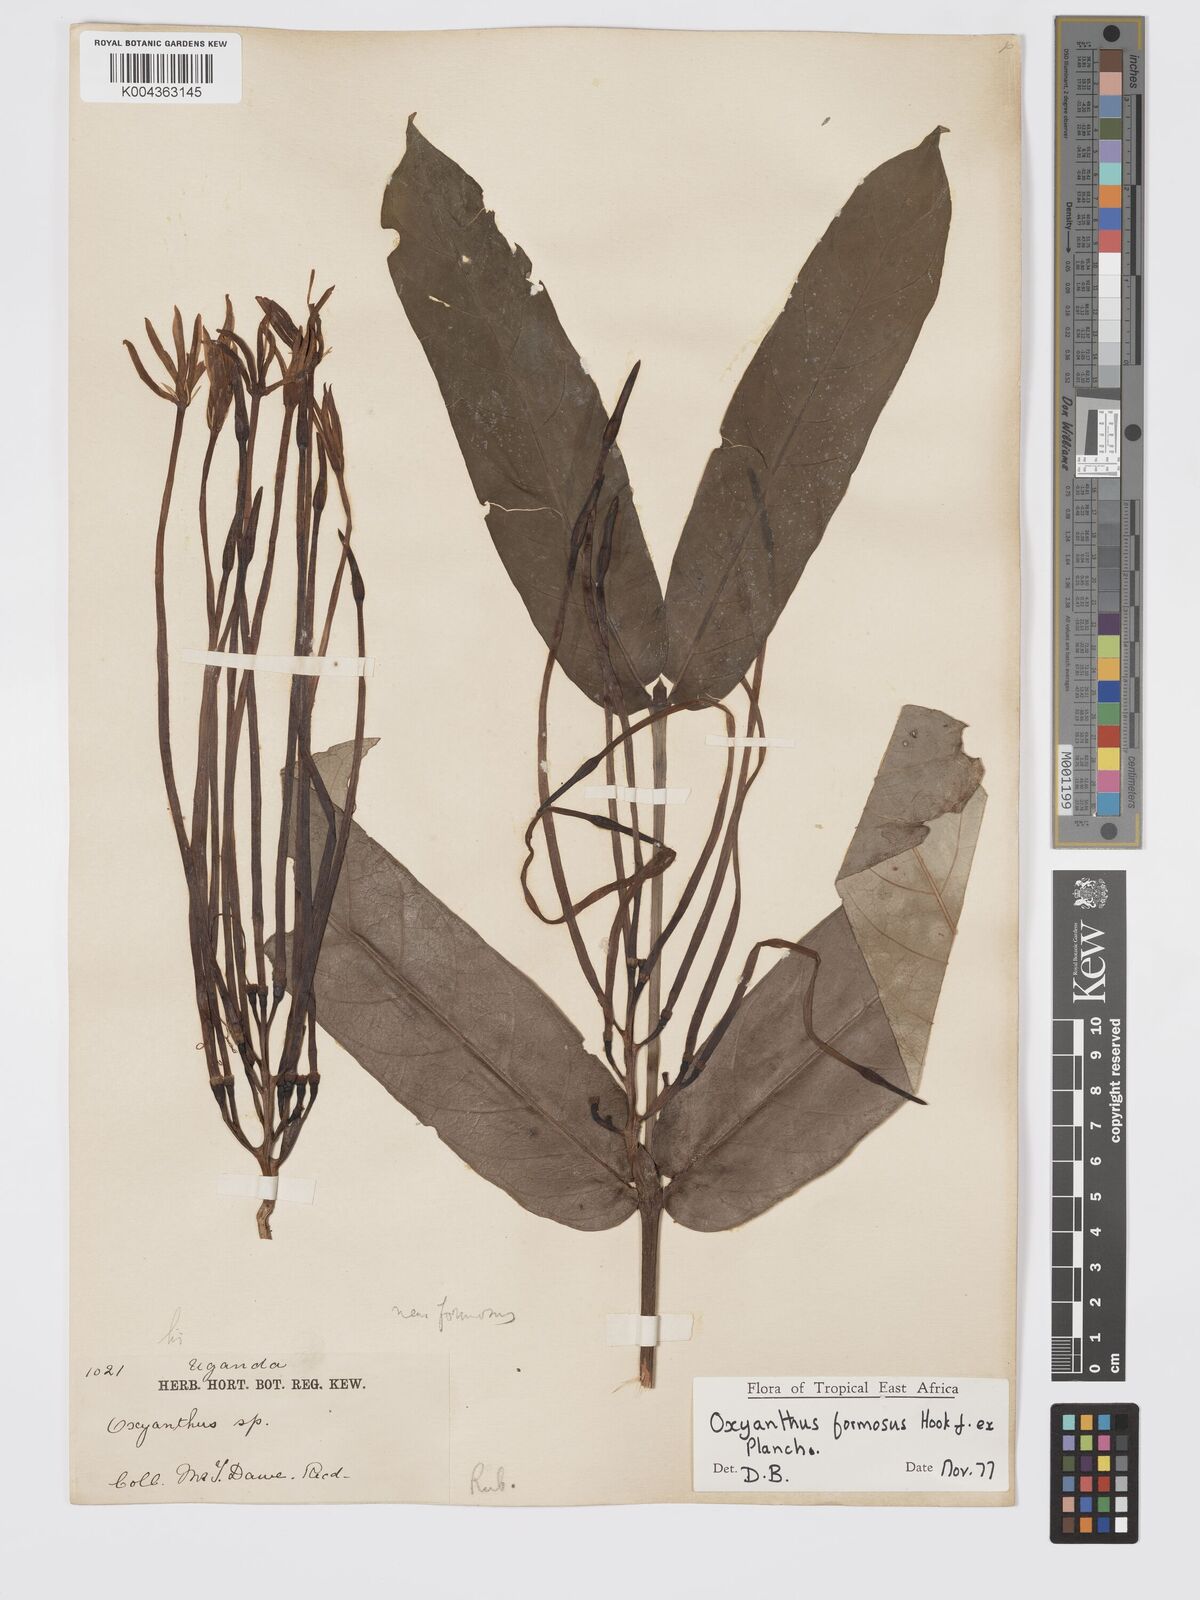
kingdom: Plantae
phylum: Tracheophyta
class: Magnoliopsida
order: Gentianales
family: Rubiaceae
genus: Oxyanthus
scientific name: Oxyanthus formosus
